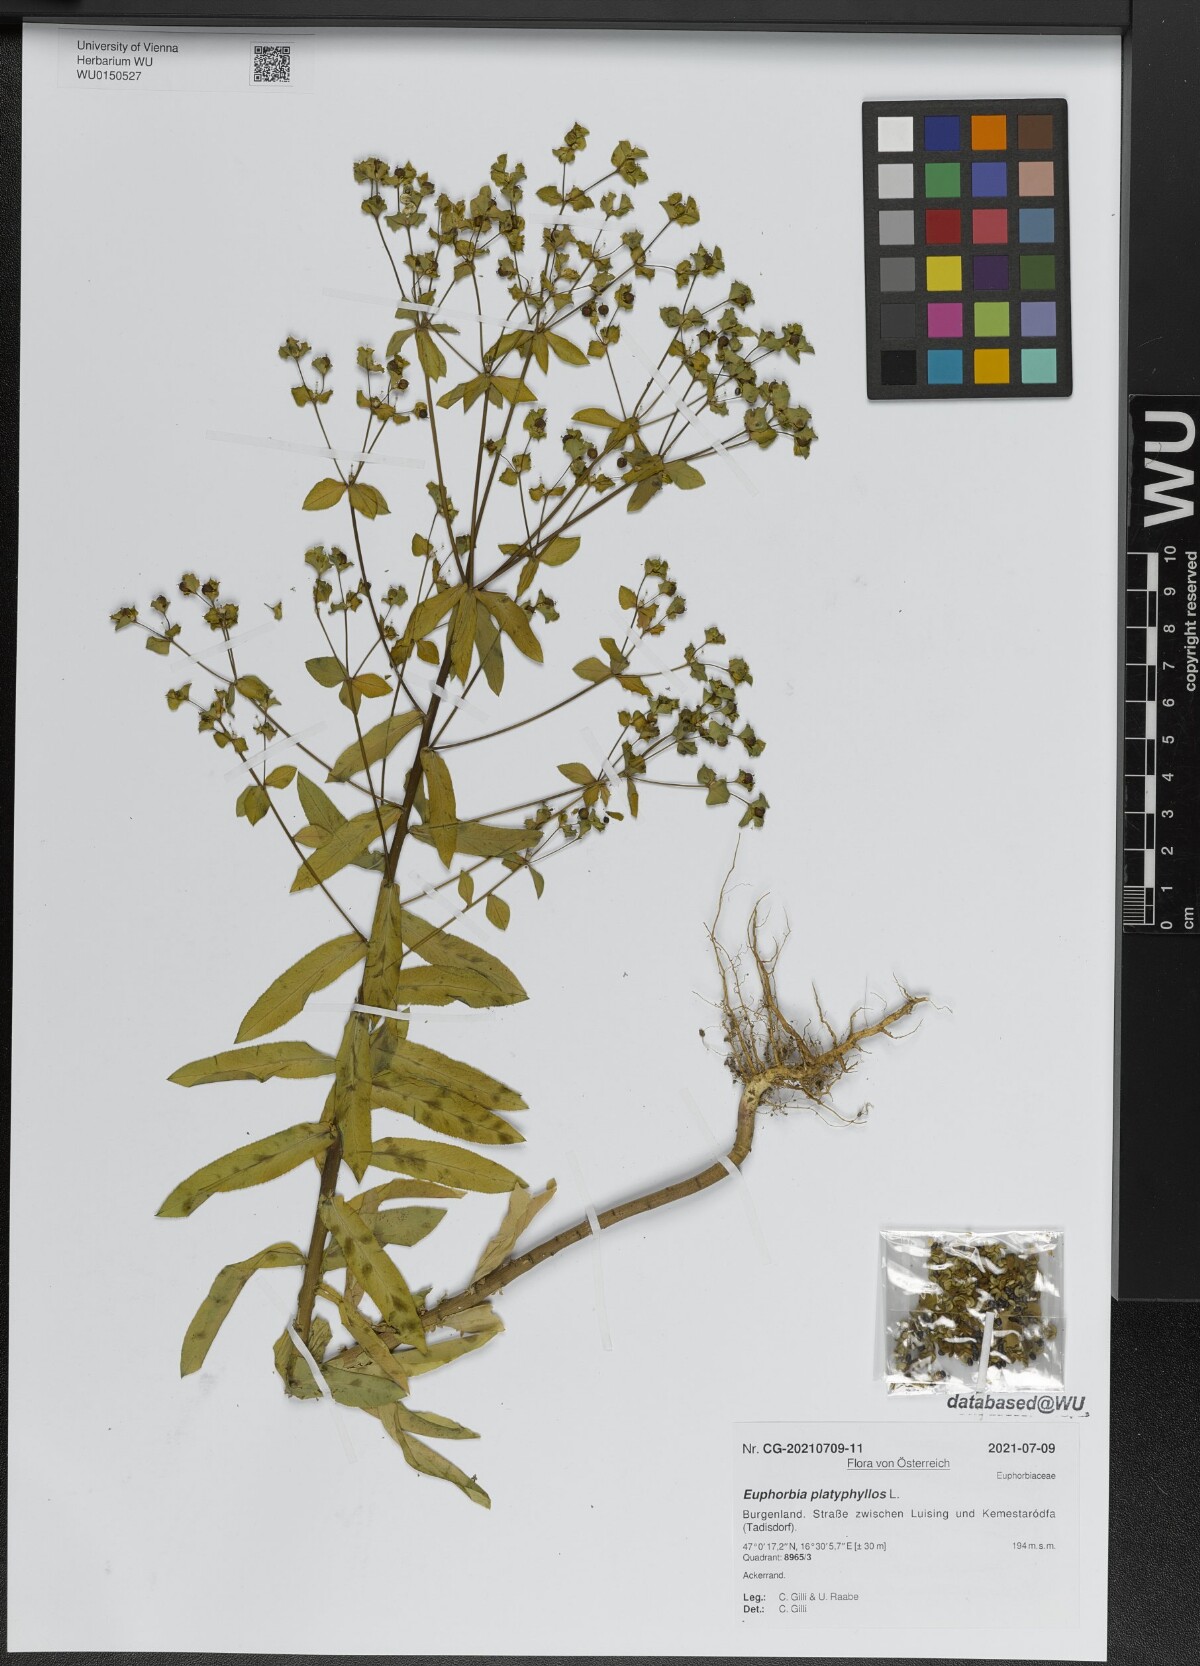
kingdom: Plantae
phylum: Tracheophyta
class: Magnoliopsida
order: Malpighiales
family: Euphorbiaceae
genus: Euphorbia
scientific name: Euphorbia platyphyllos
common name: Broad-leaved spurge
